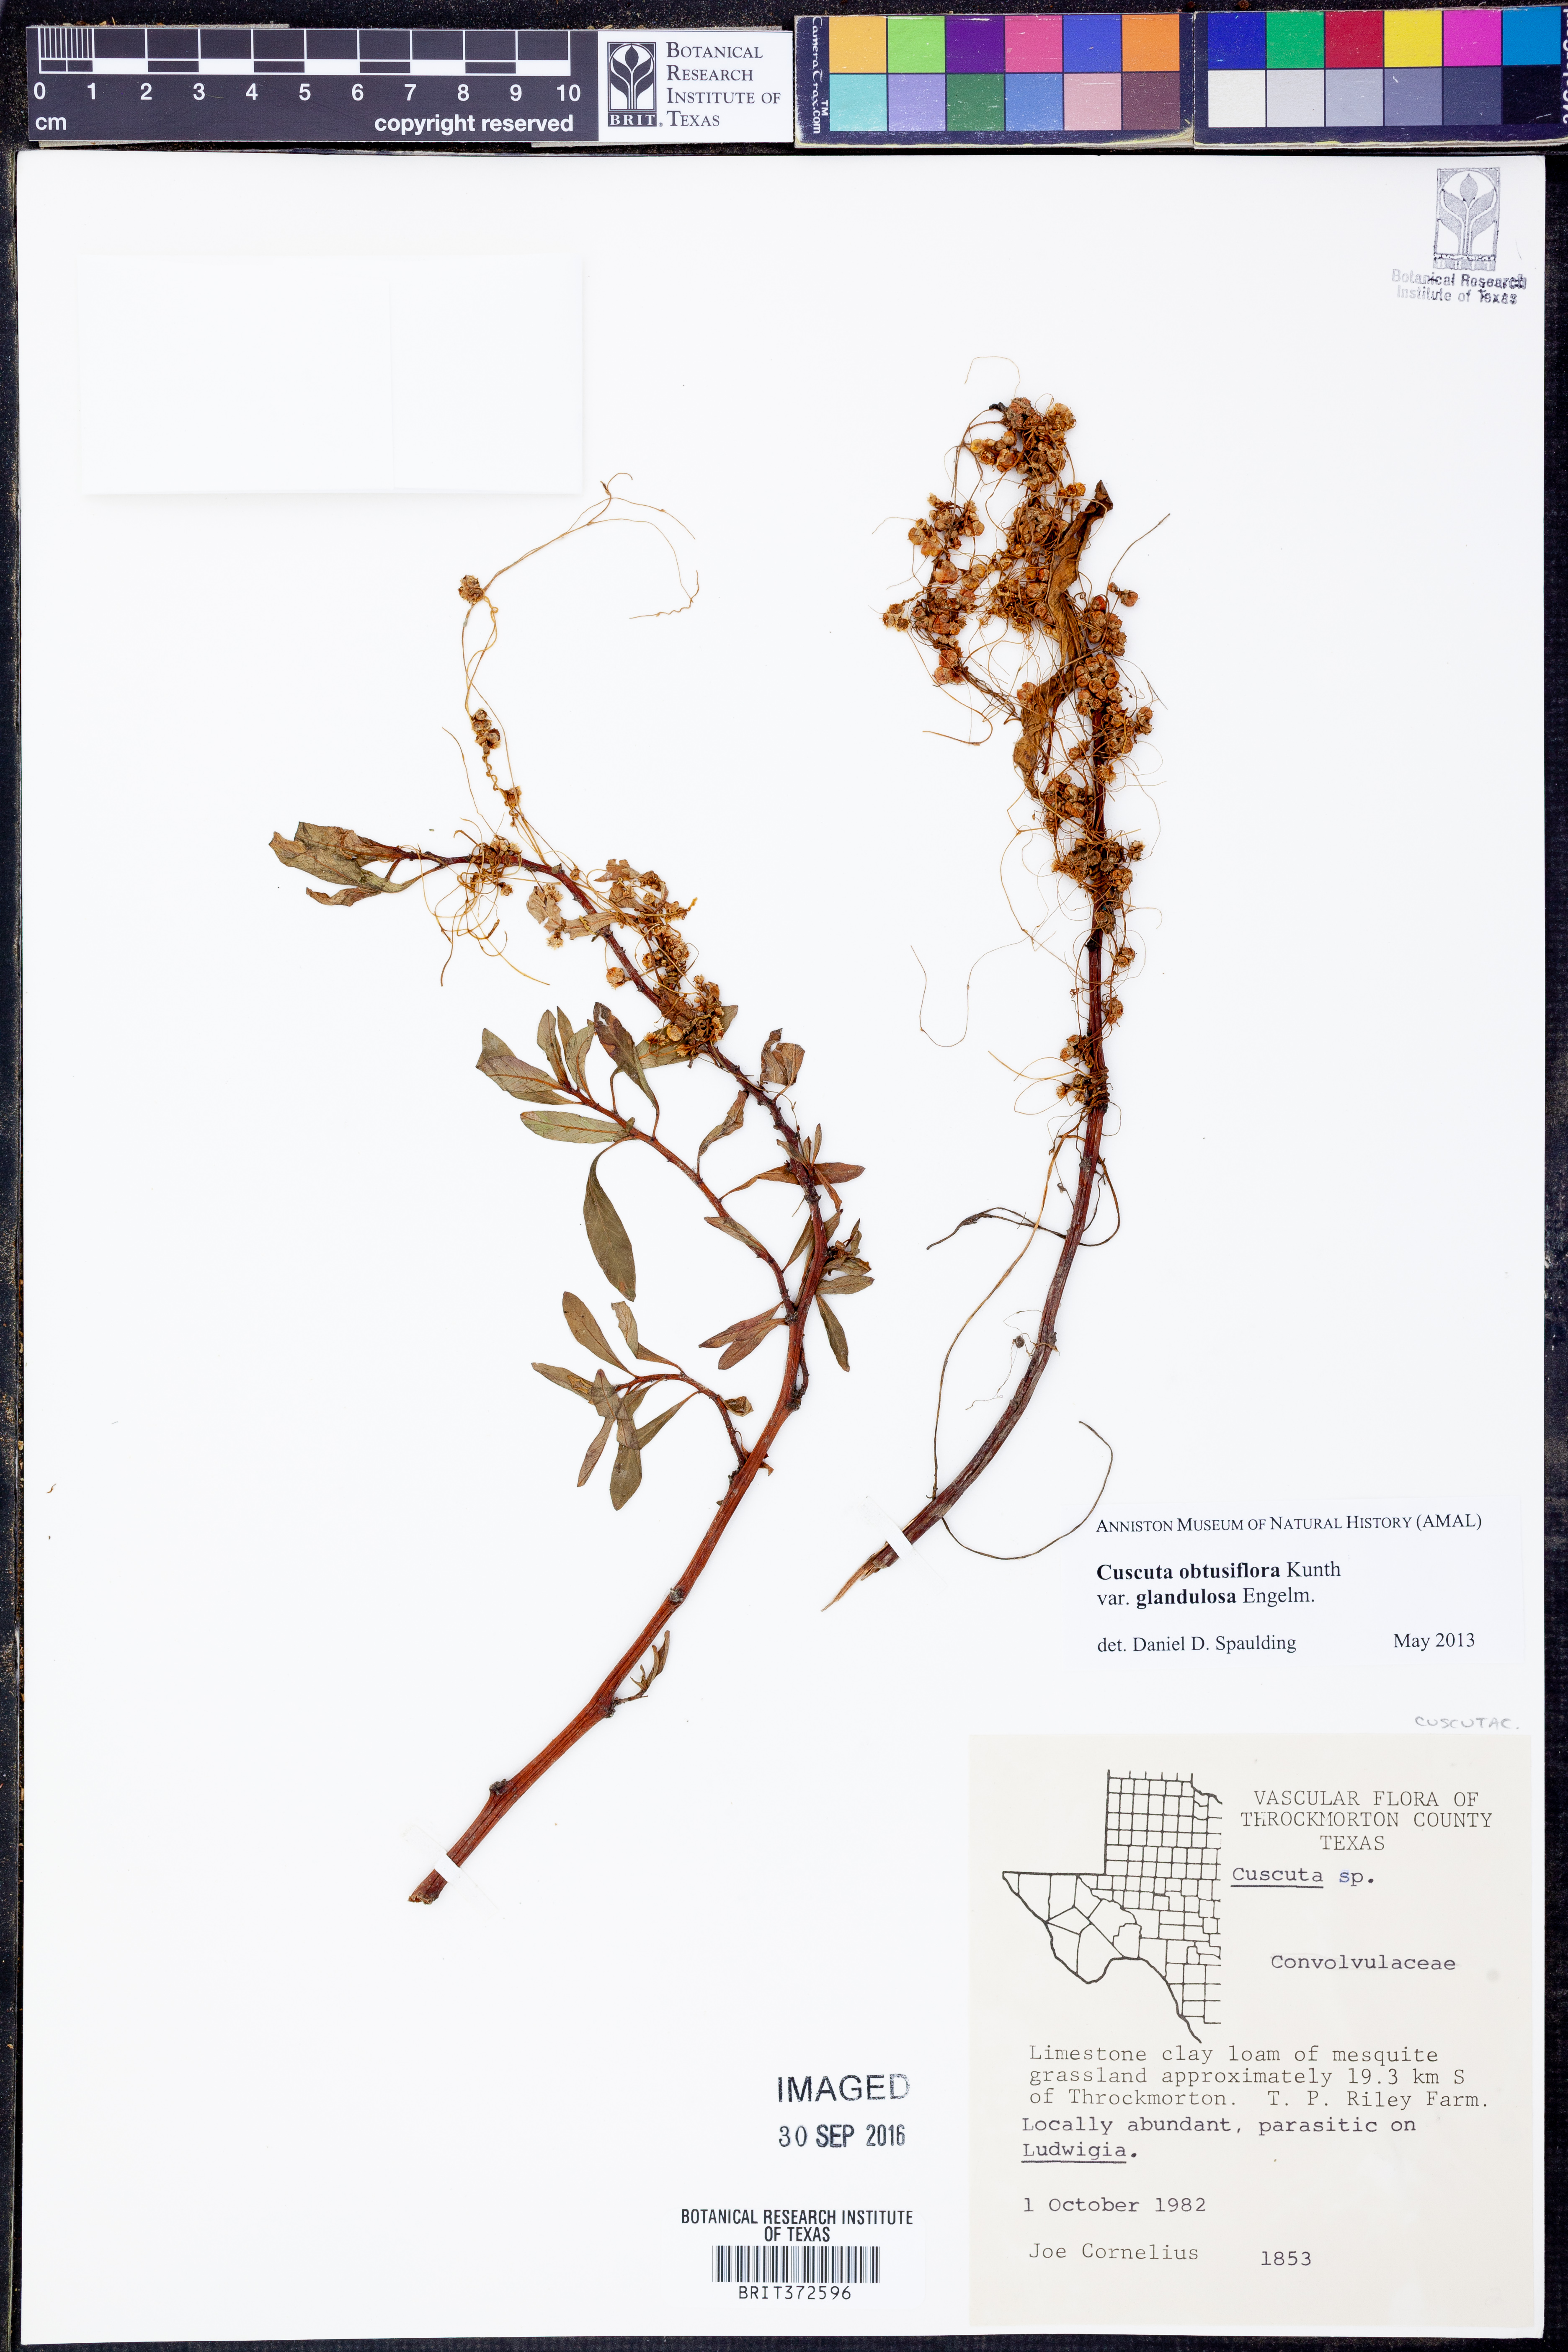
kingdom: Plantae
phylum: Tracheophyta
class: Magnoliopsida
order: Solanales
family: Convolvulaceae
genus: Cuscuta
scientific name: Cuscuta obtusiflora
